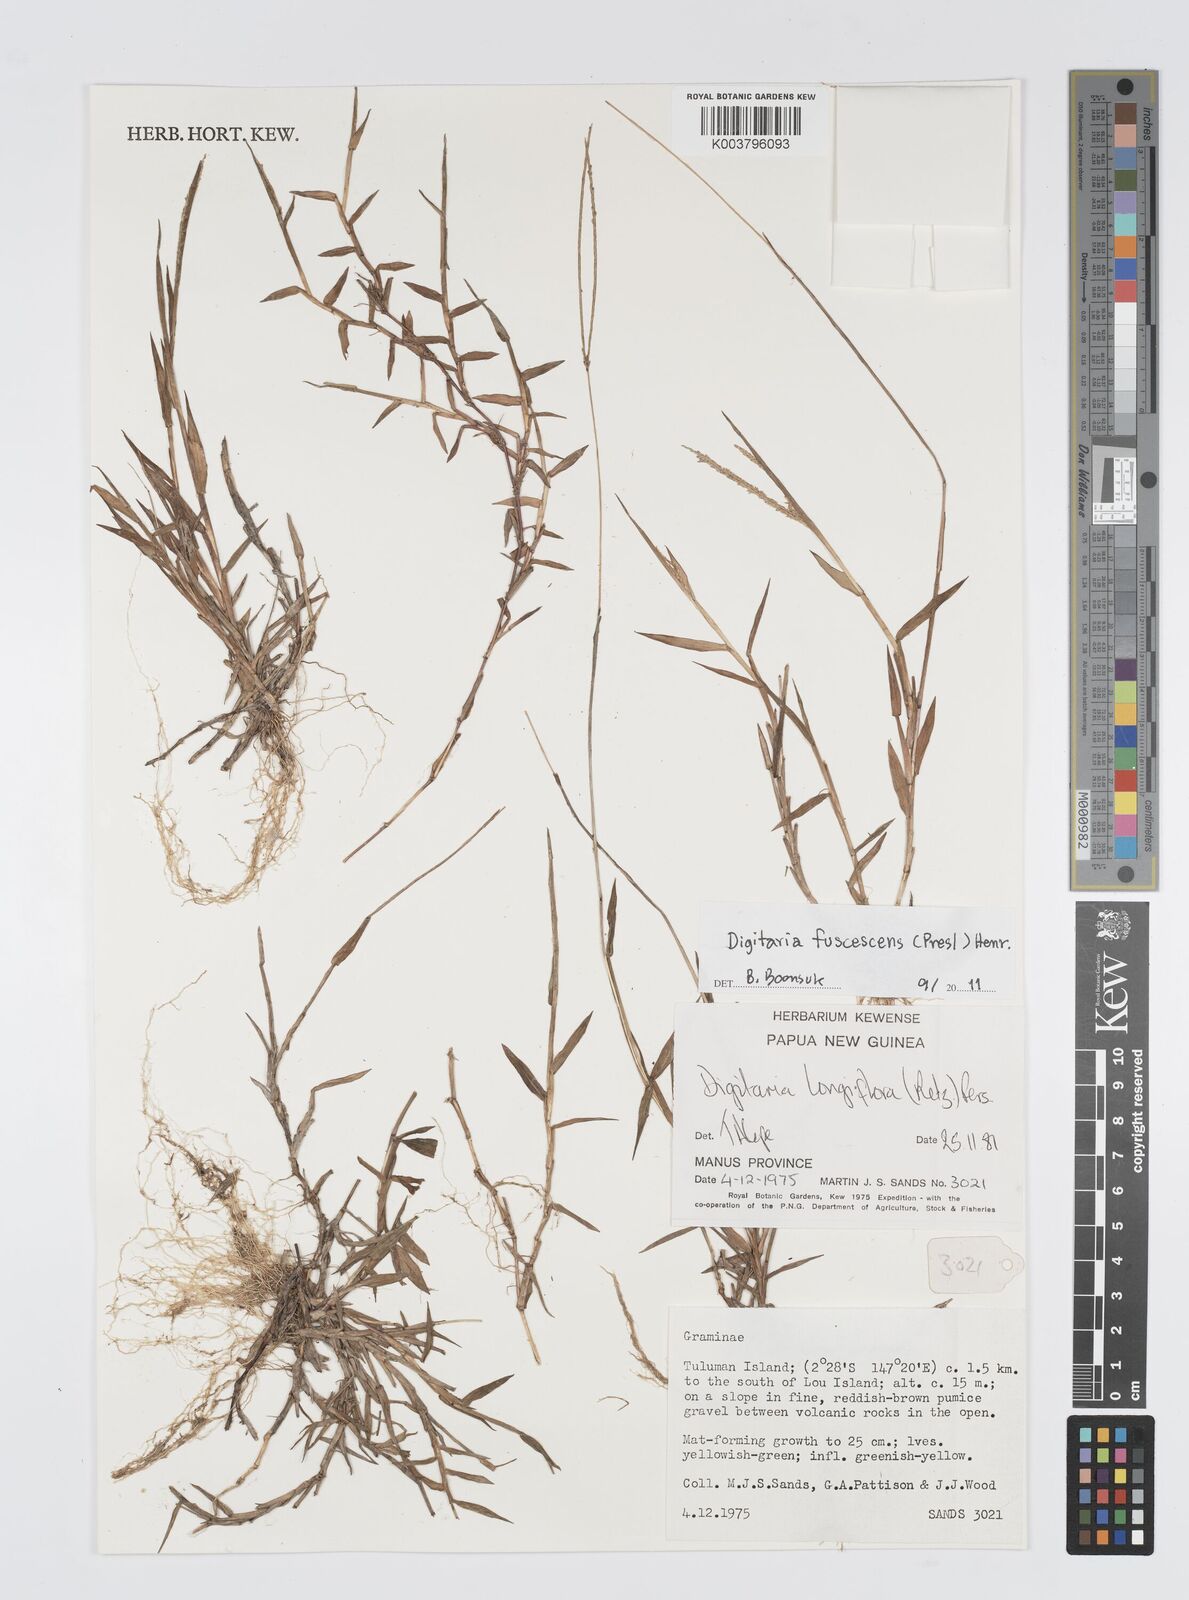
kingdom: Plantae
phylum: Tracheophyta
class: Liliopsida
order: Poales
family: Poaceae
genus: Digitaria
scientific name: Digitaria fuscescens
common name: Yellow crabgrass
